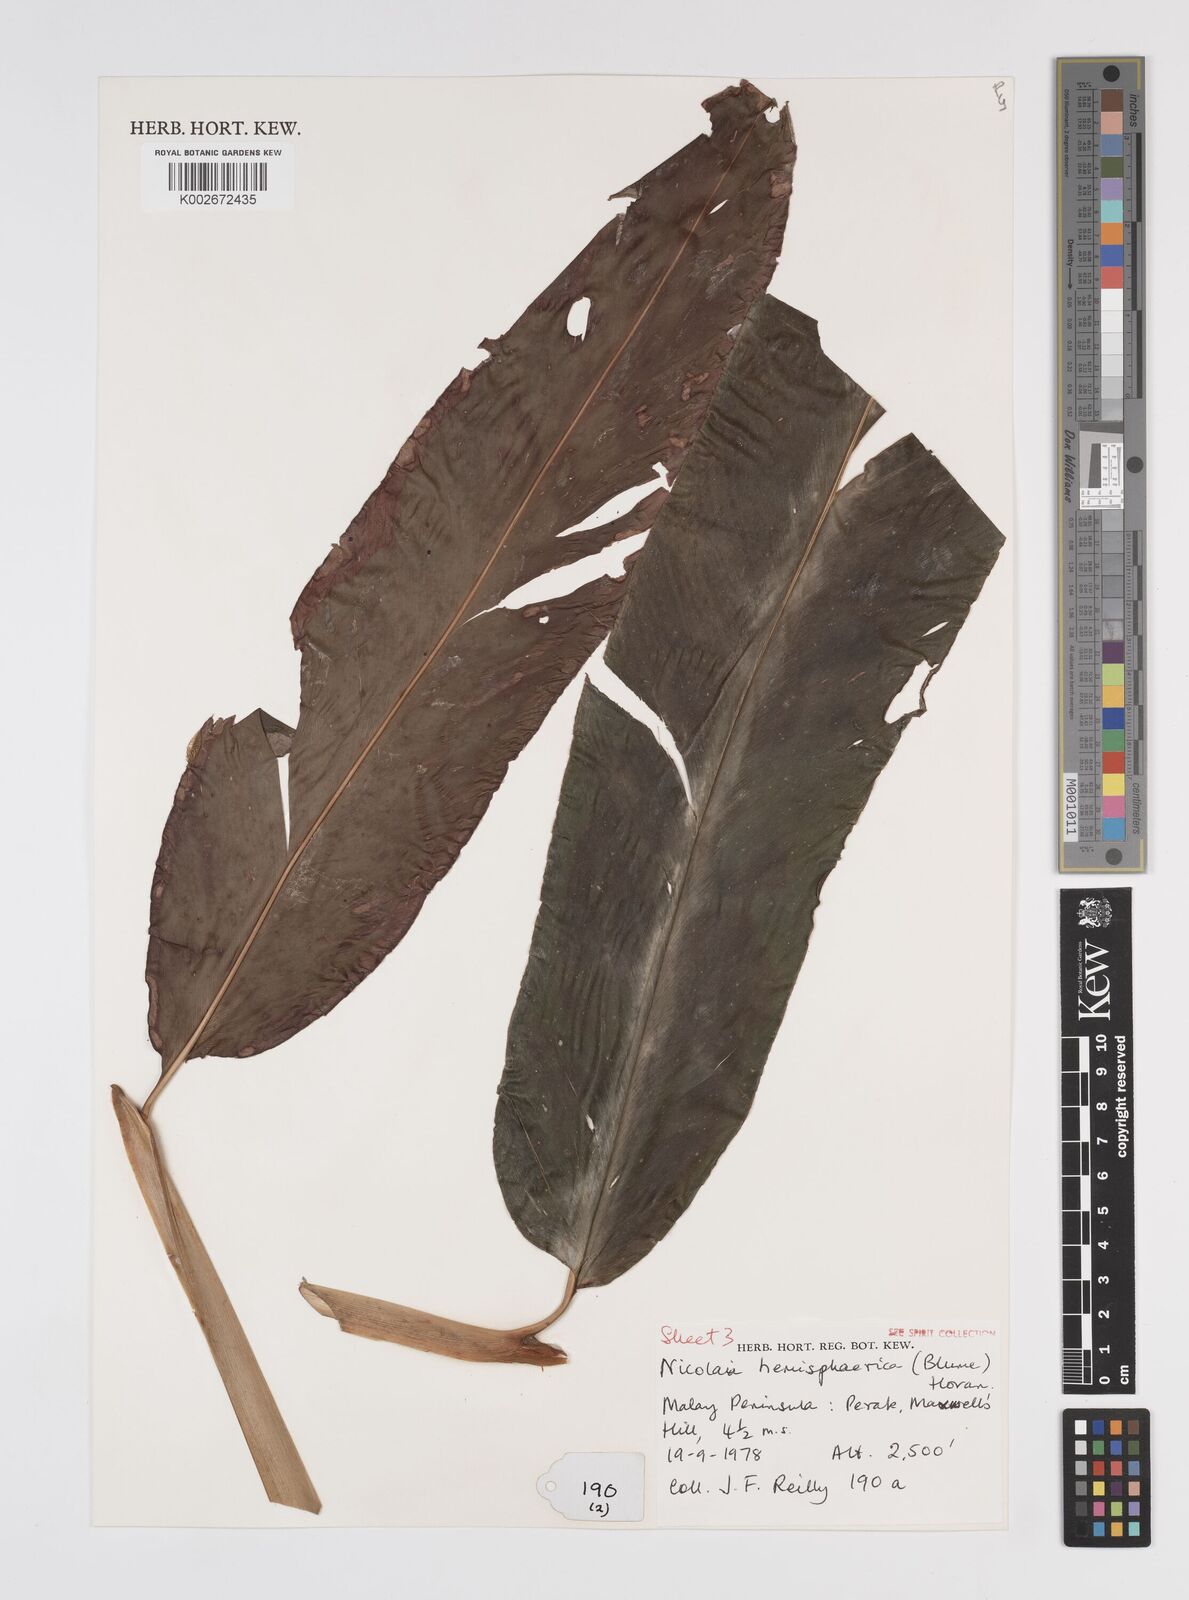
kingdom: Plantae
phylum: Tracheophyta
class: Liliopsida
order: Zingiberales
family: Zingiberaceae
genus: Etlingera
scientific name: Etlingera fulgens
